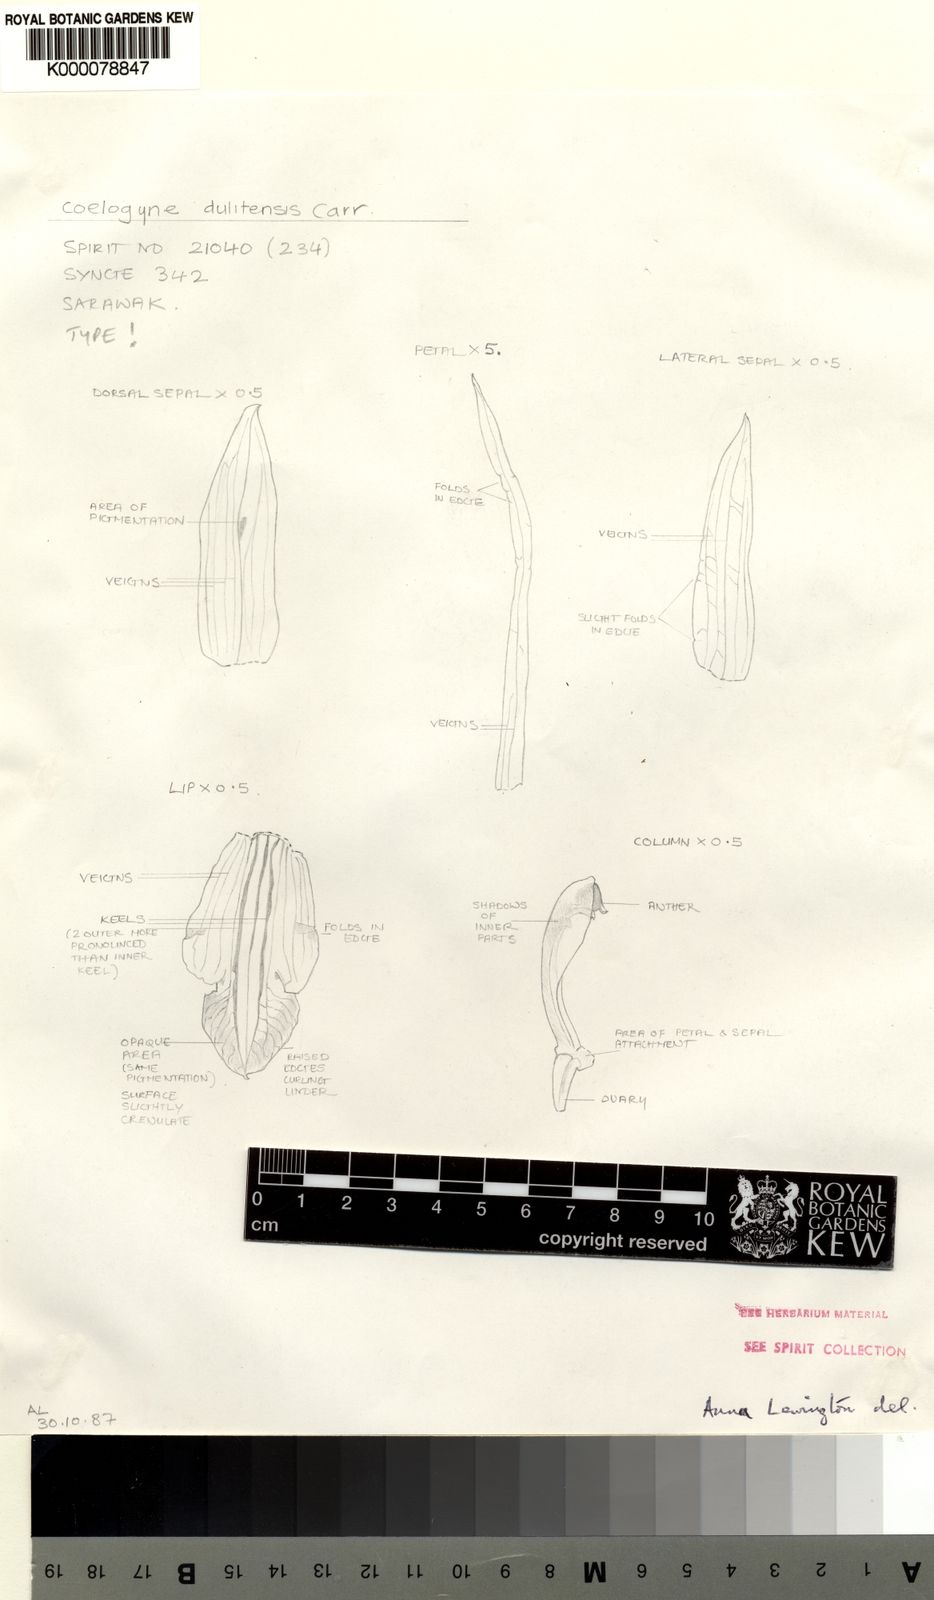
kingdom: Plantae
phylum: Tracheophyta
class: Liliopsida
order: Asparagales
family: Orchidaceae
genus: Coelogyne
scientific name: Coelogyne dulitensis
